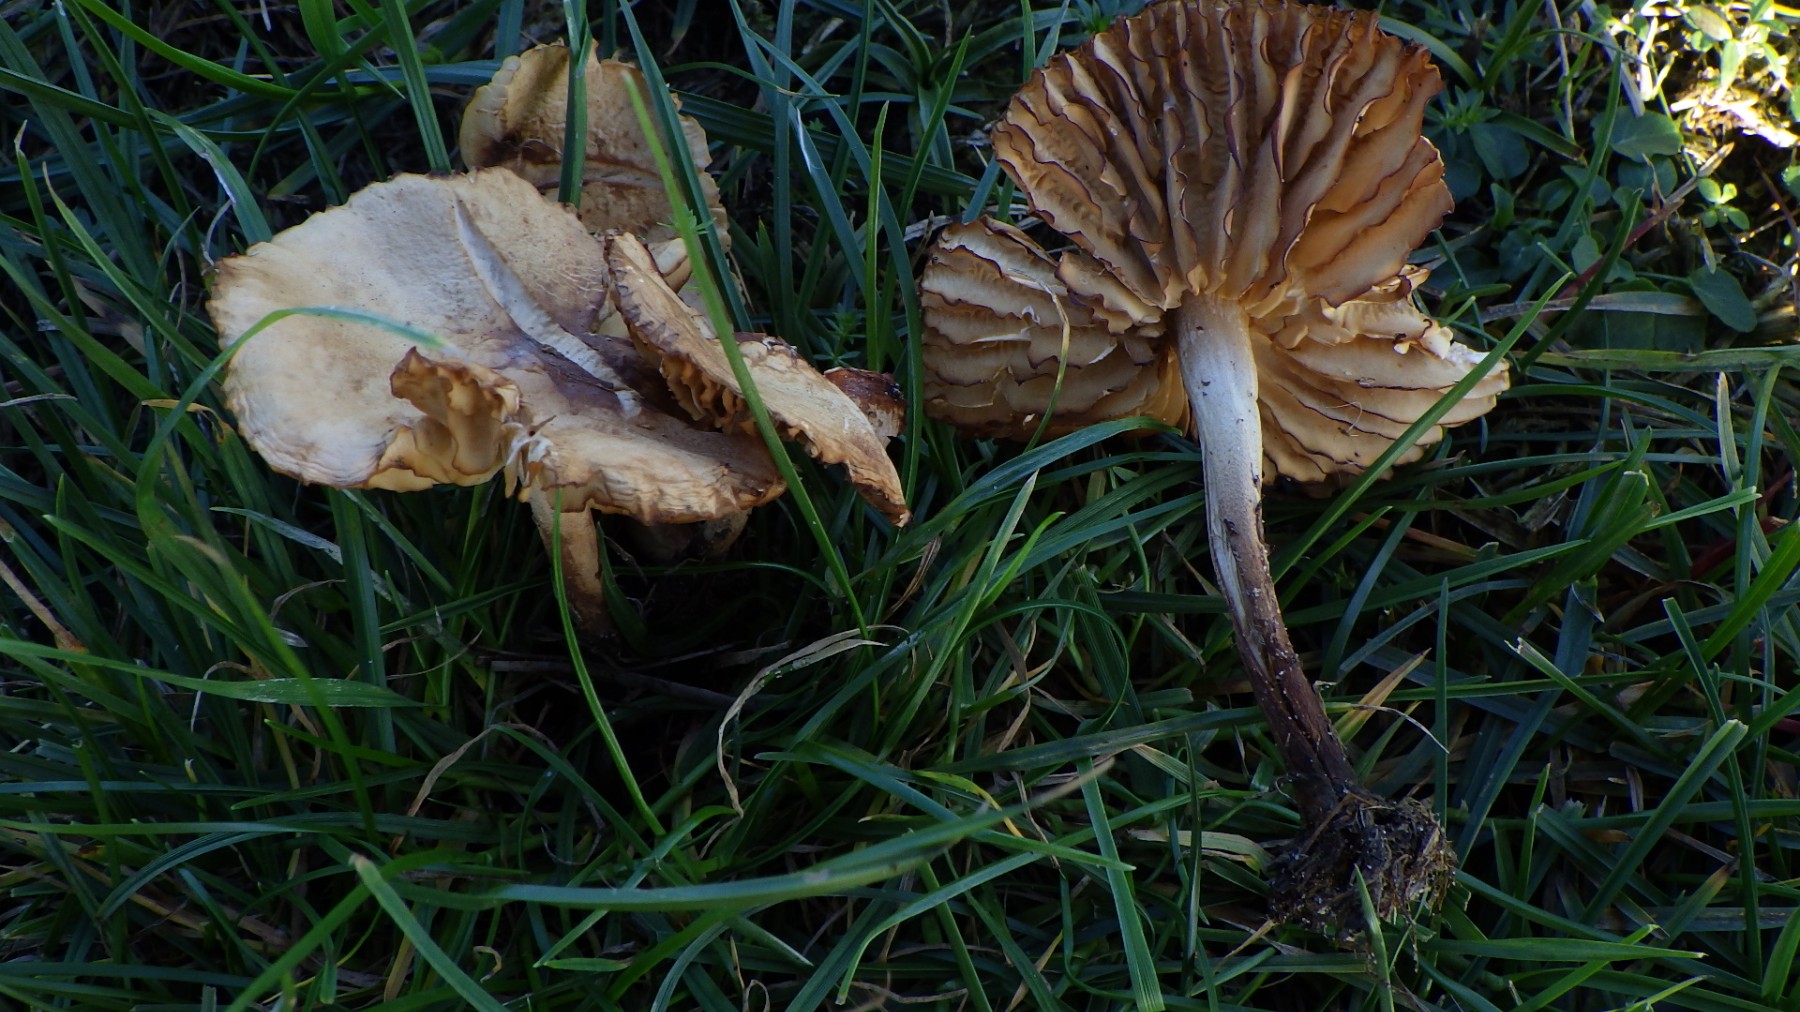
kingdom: Fungi
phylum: Basidiomycota
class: Agaricomycetes
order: Agaricales
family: Marasmiaceae
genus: Marasmius
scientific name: Marasmius oreades
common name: elledans-bruskhat
